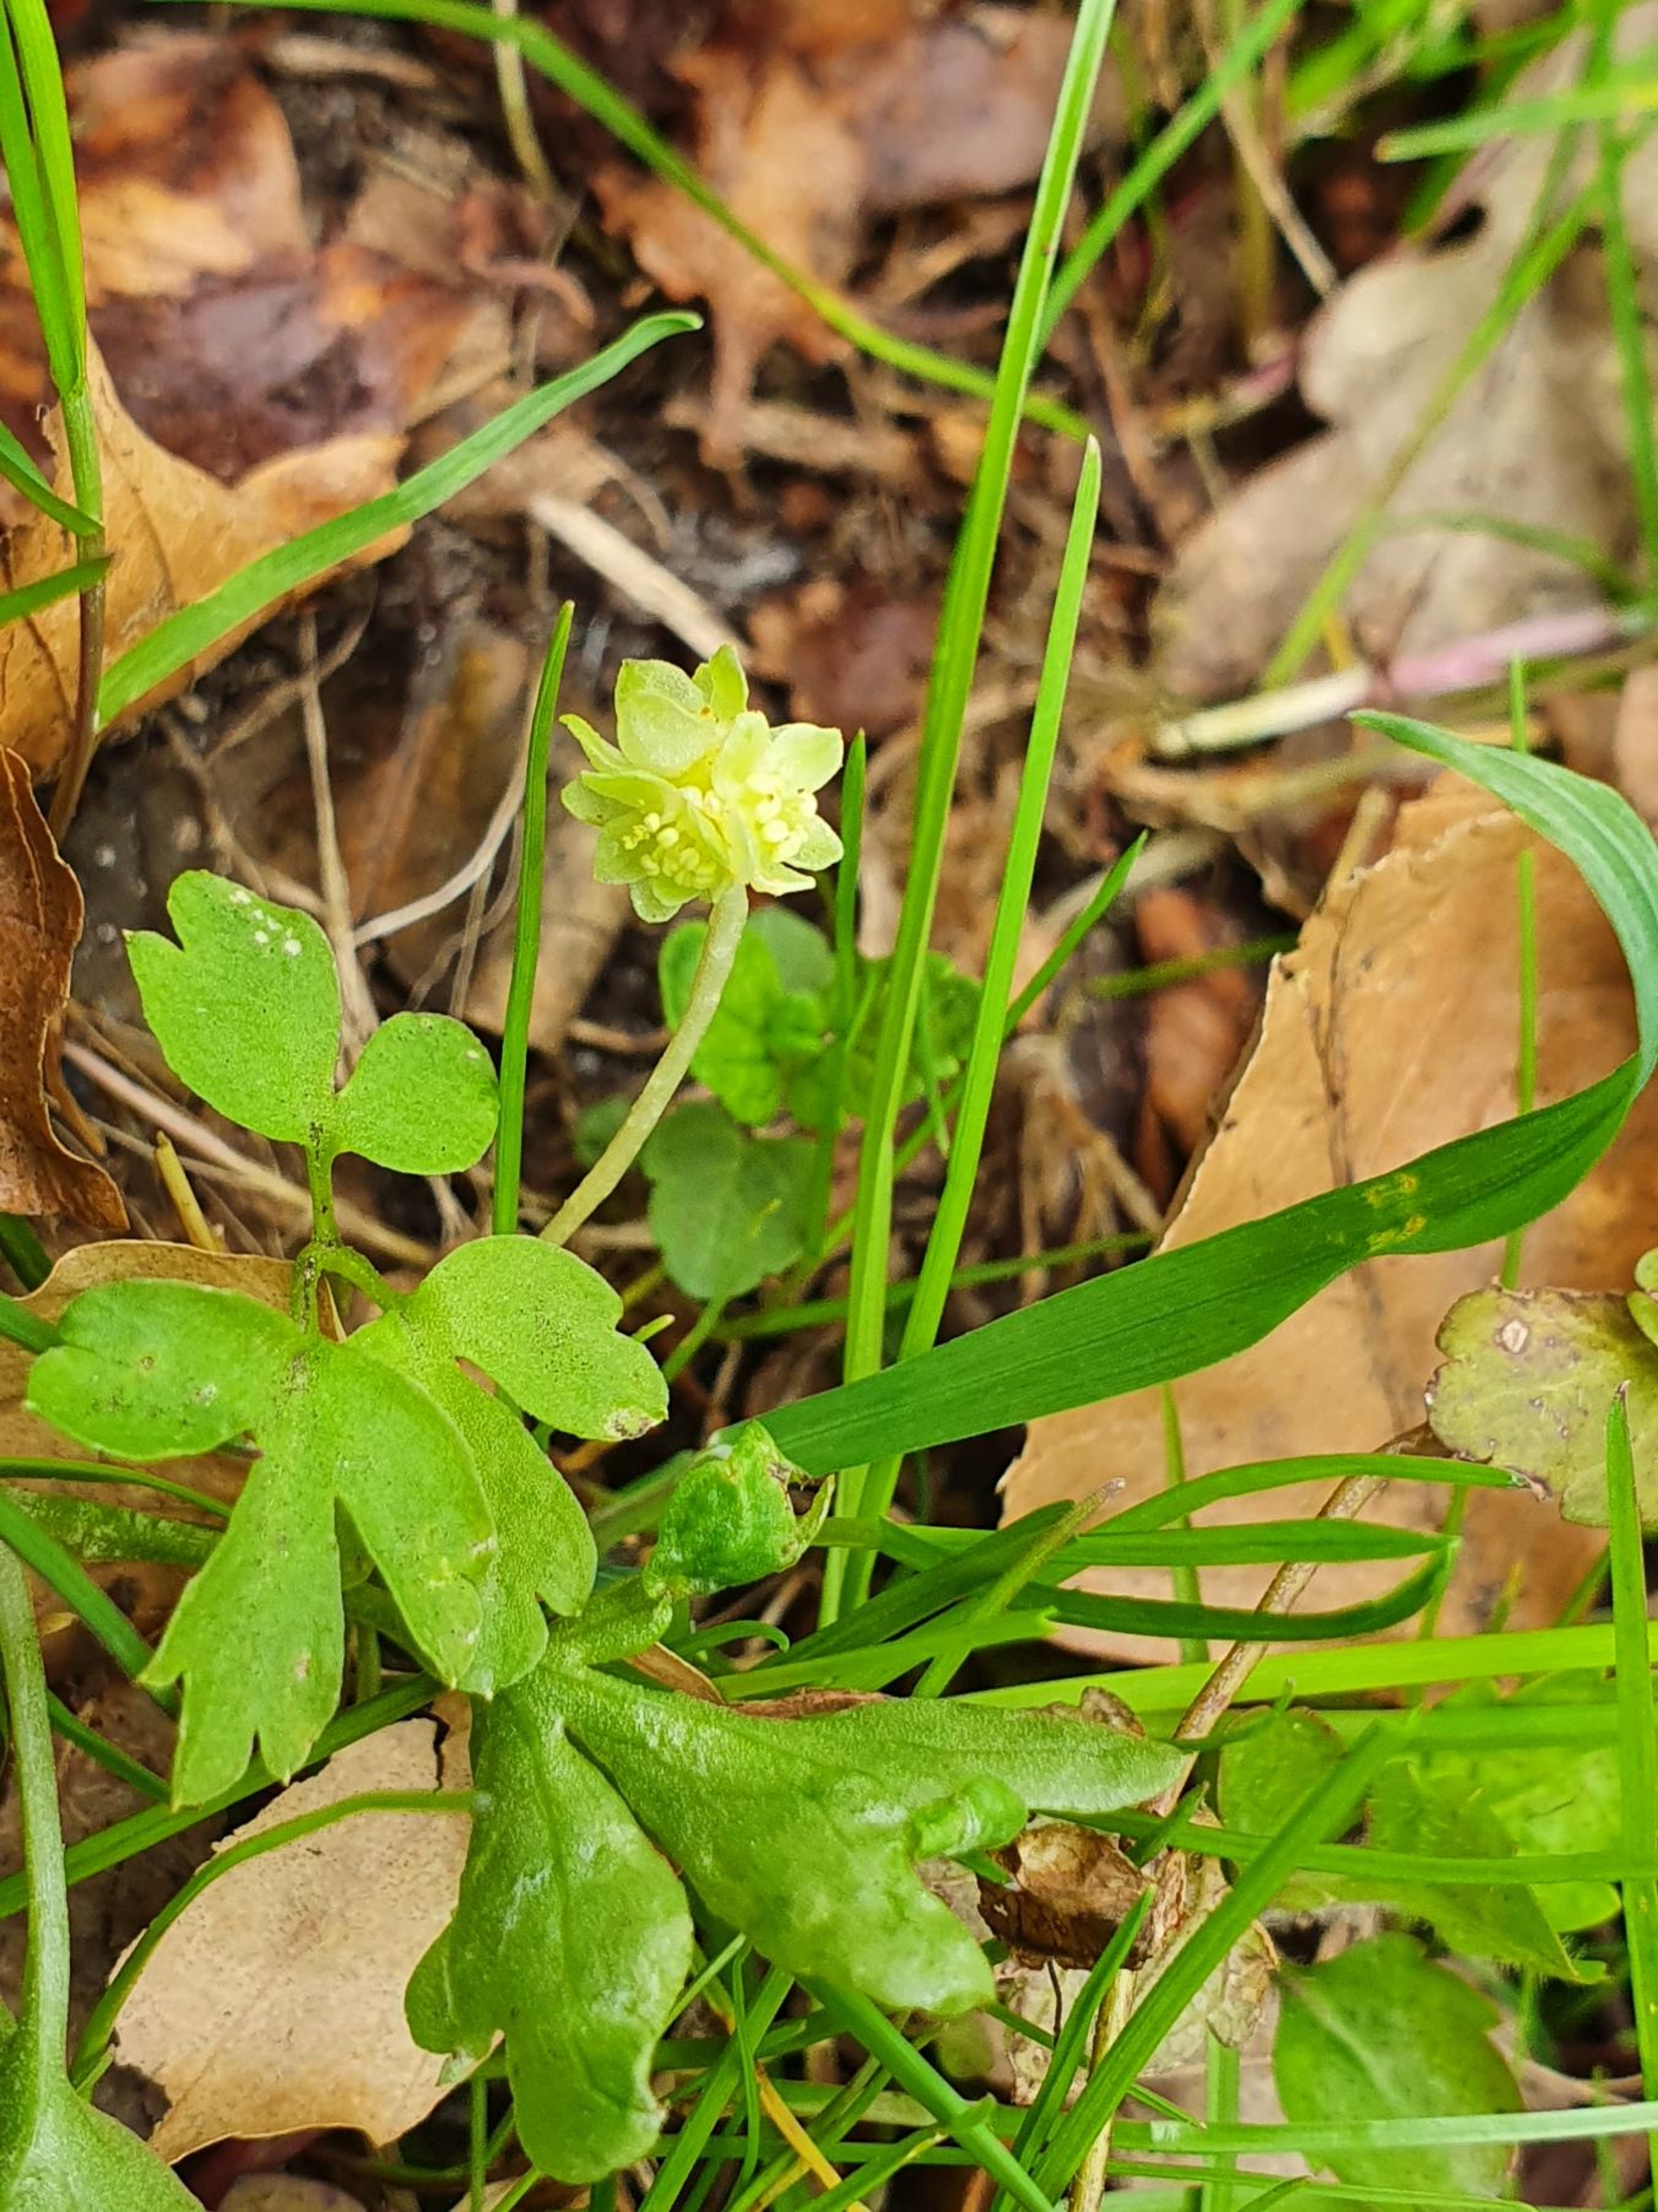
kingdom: Plantae
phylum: Tracheophyta
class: Magnoliopsida
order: Dipsacales
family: Viburnaceae
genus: Adoxa
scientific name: Adoxa moschatellina
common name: Desmerurt
